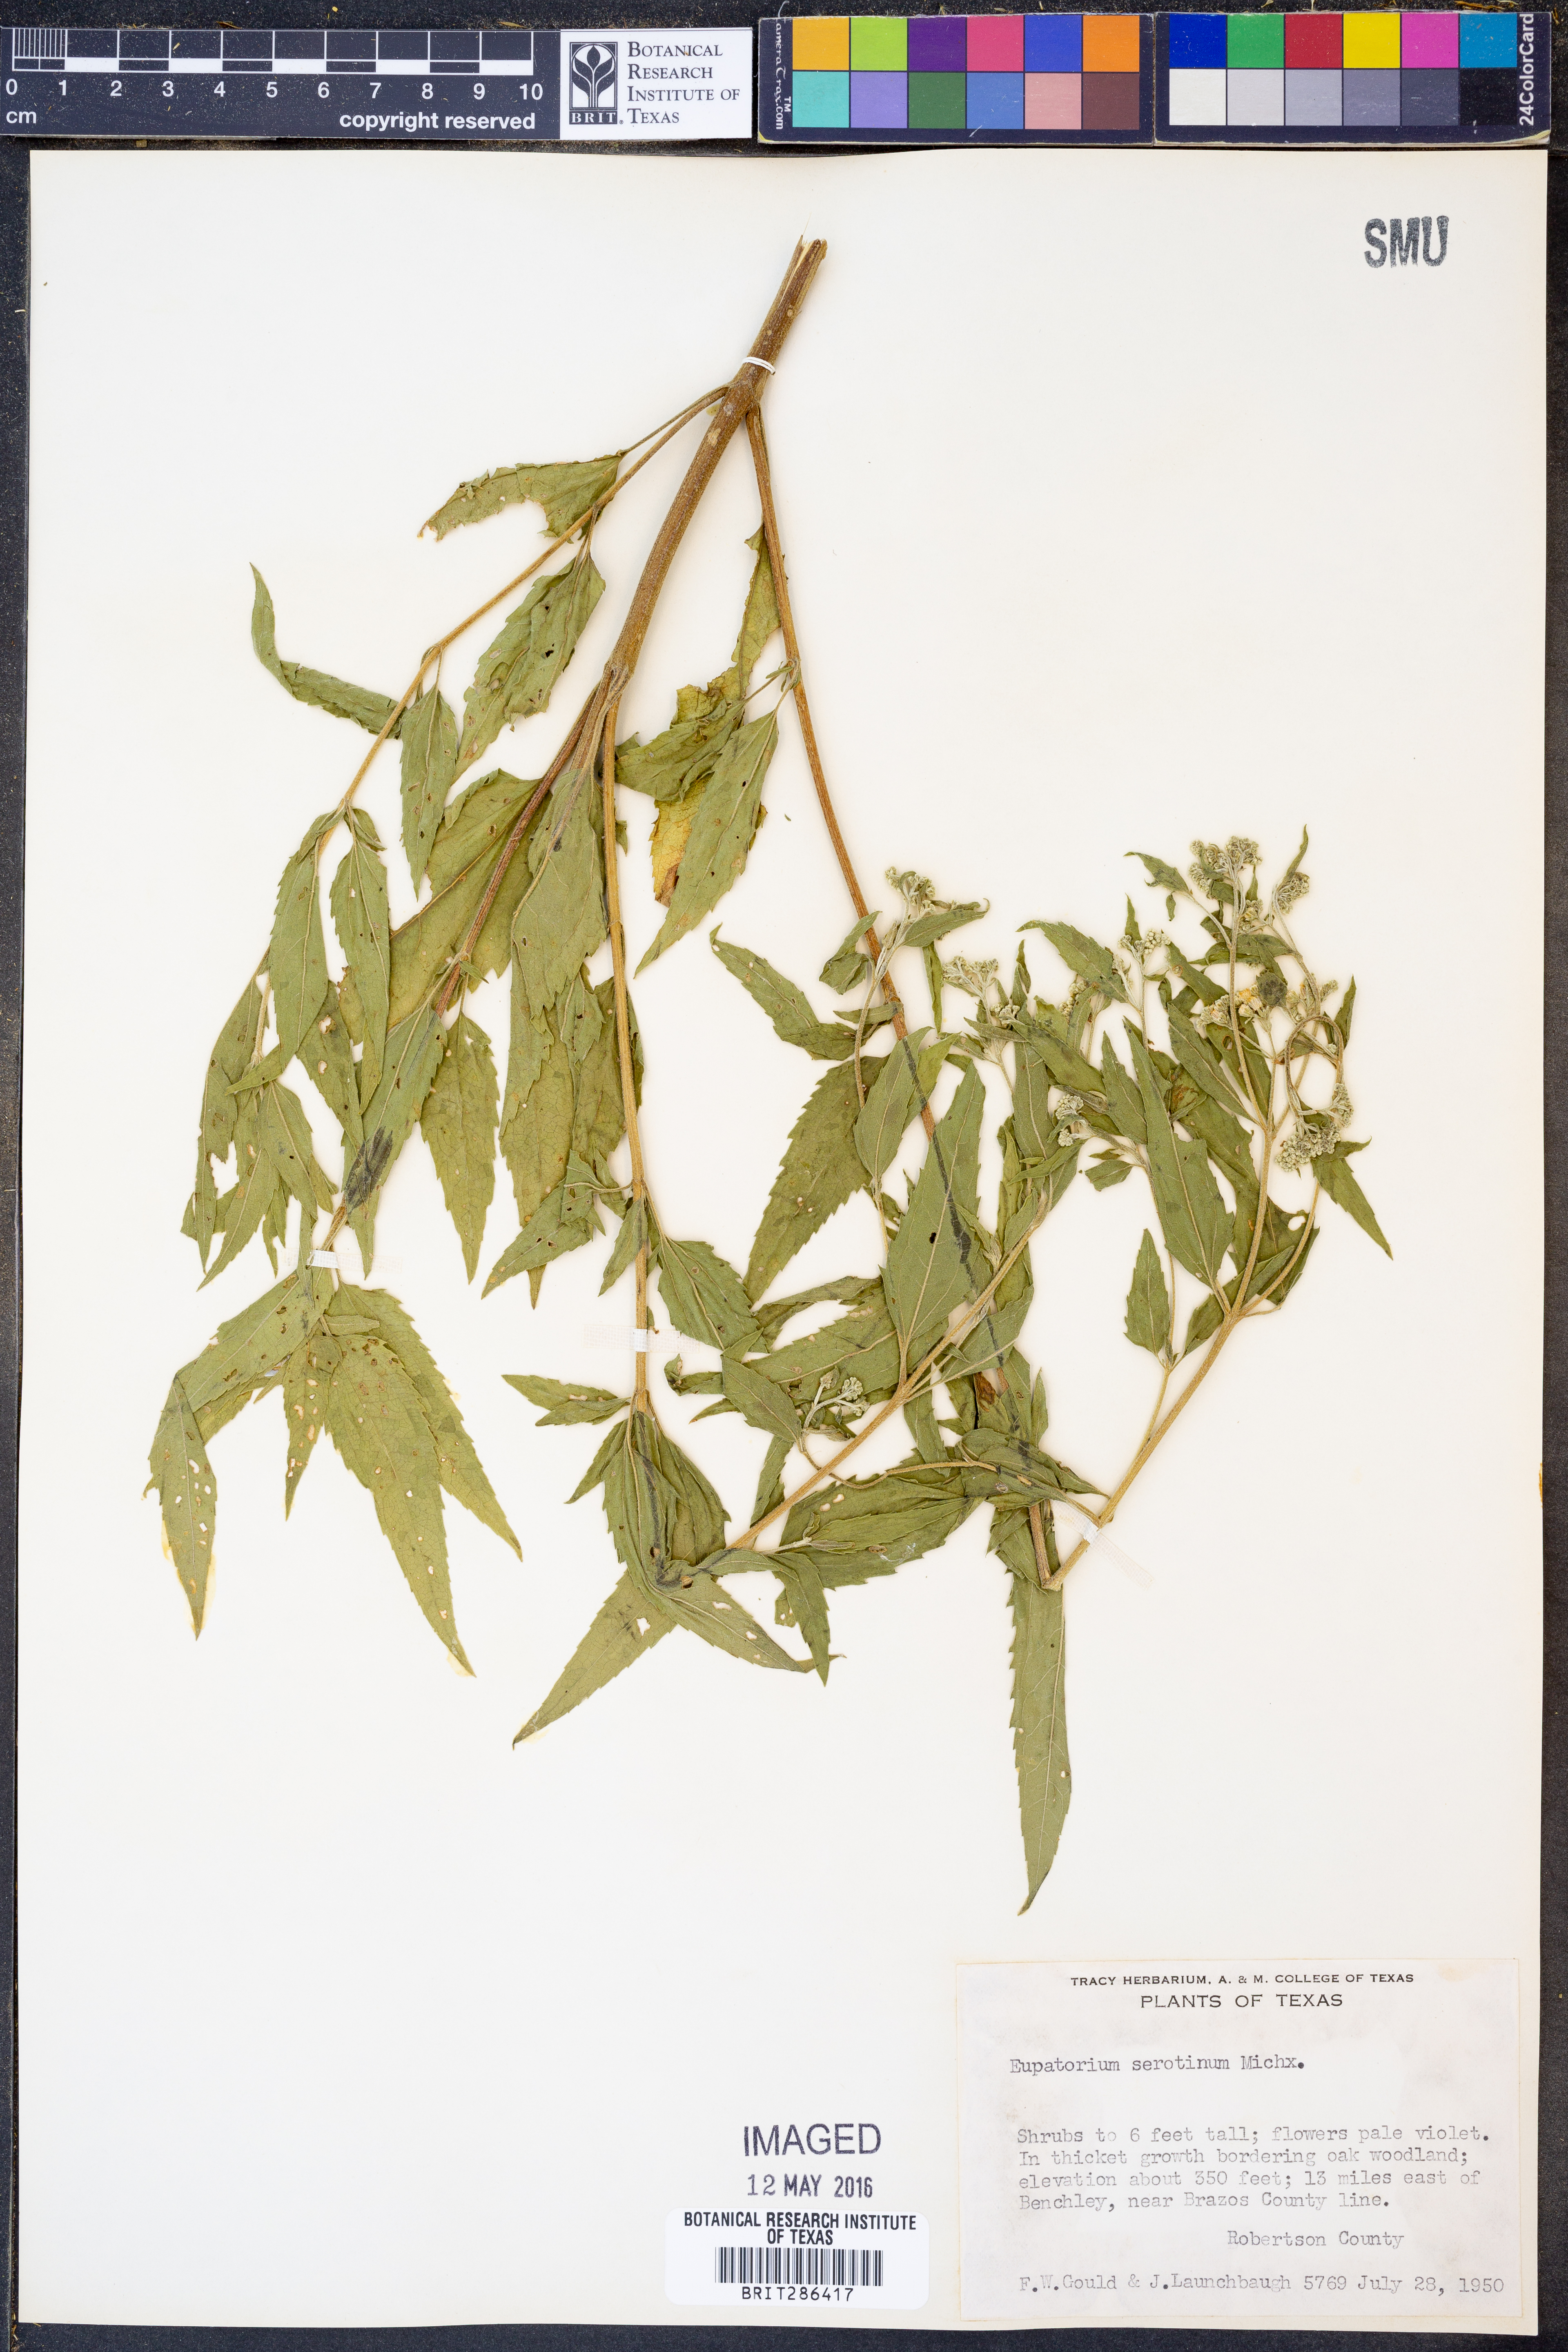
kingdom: Plantae
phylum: Tracheophyta
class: Magnoliopsida
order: Asterales
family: Asteraceae
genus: Eupatorium
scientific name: Eupatorium serotinum
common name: Late boneset
